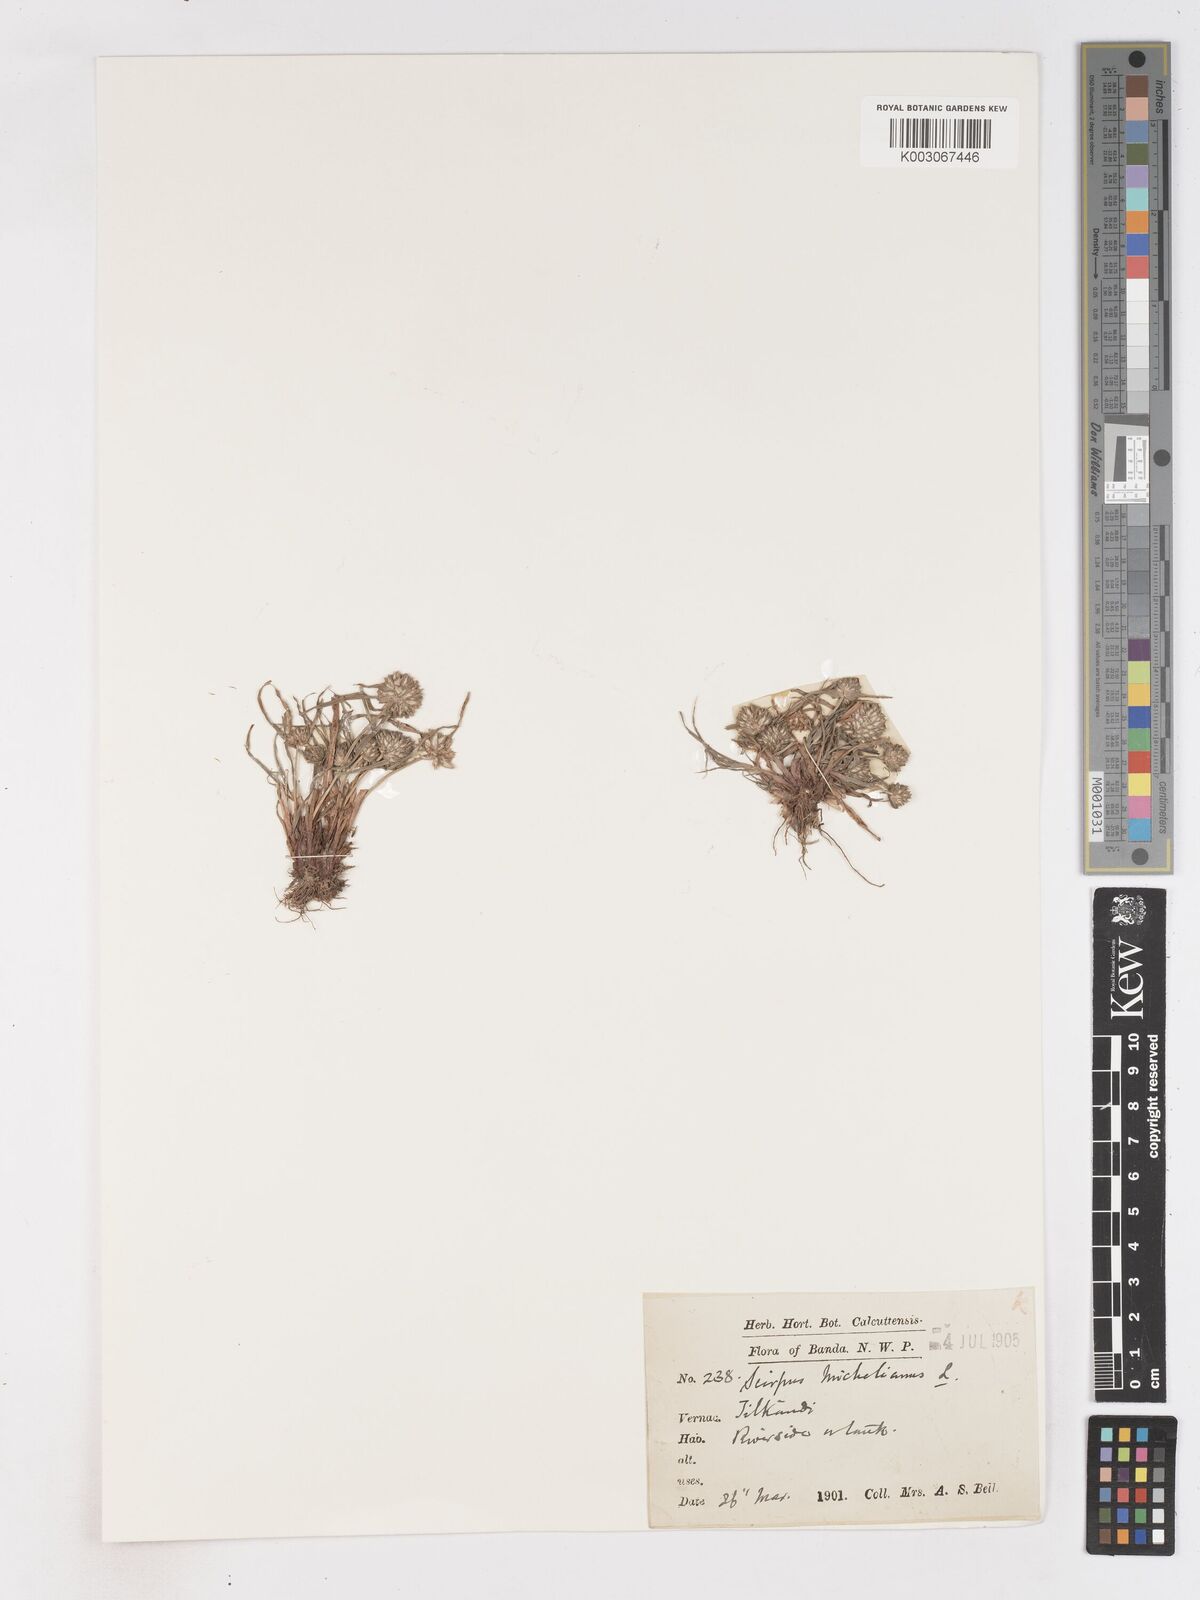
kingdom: Plantae
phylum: Tracheophyta
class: Liliopsida
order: Poales
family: Cyperaceae
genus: Cyperus
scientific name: Cyperus michelianus
